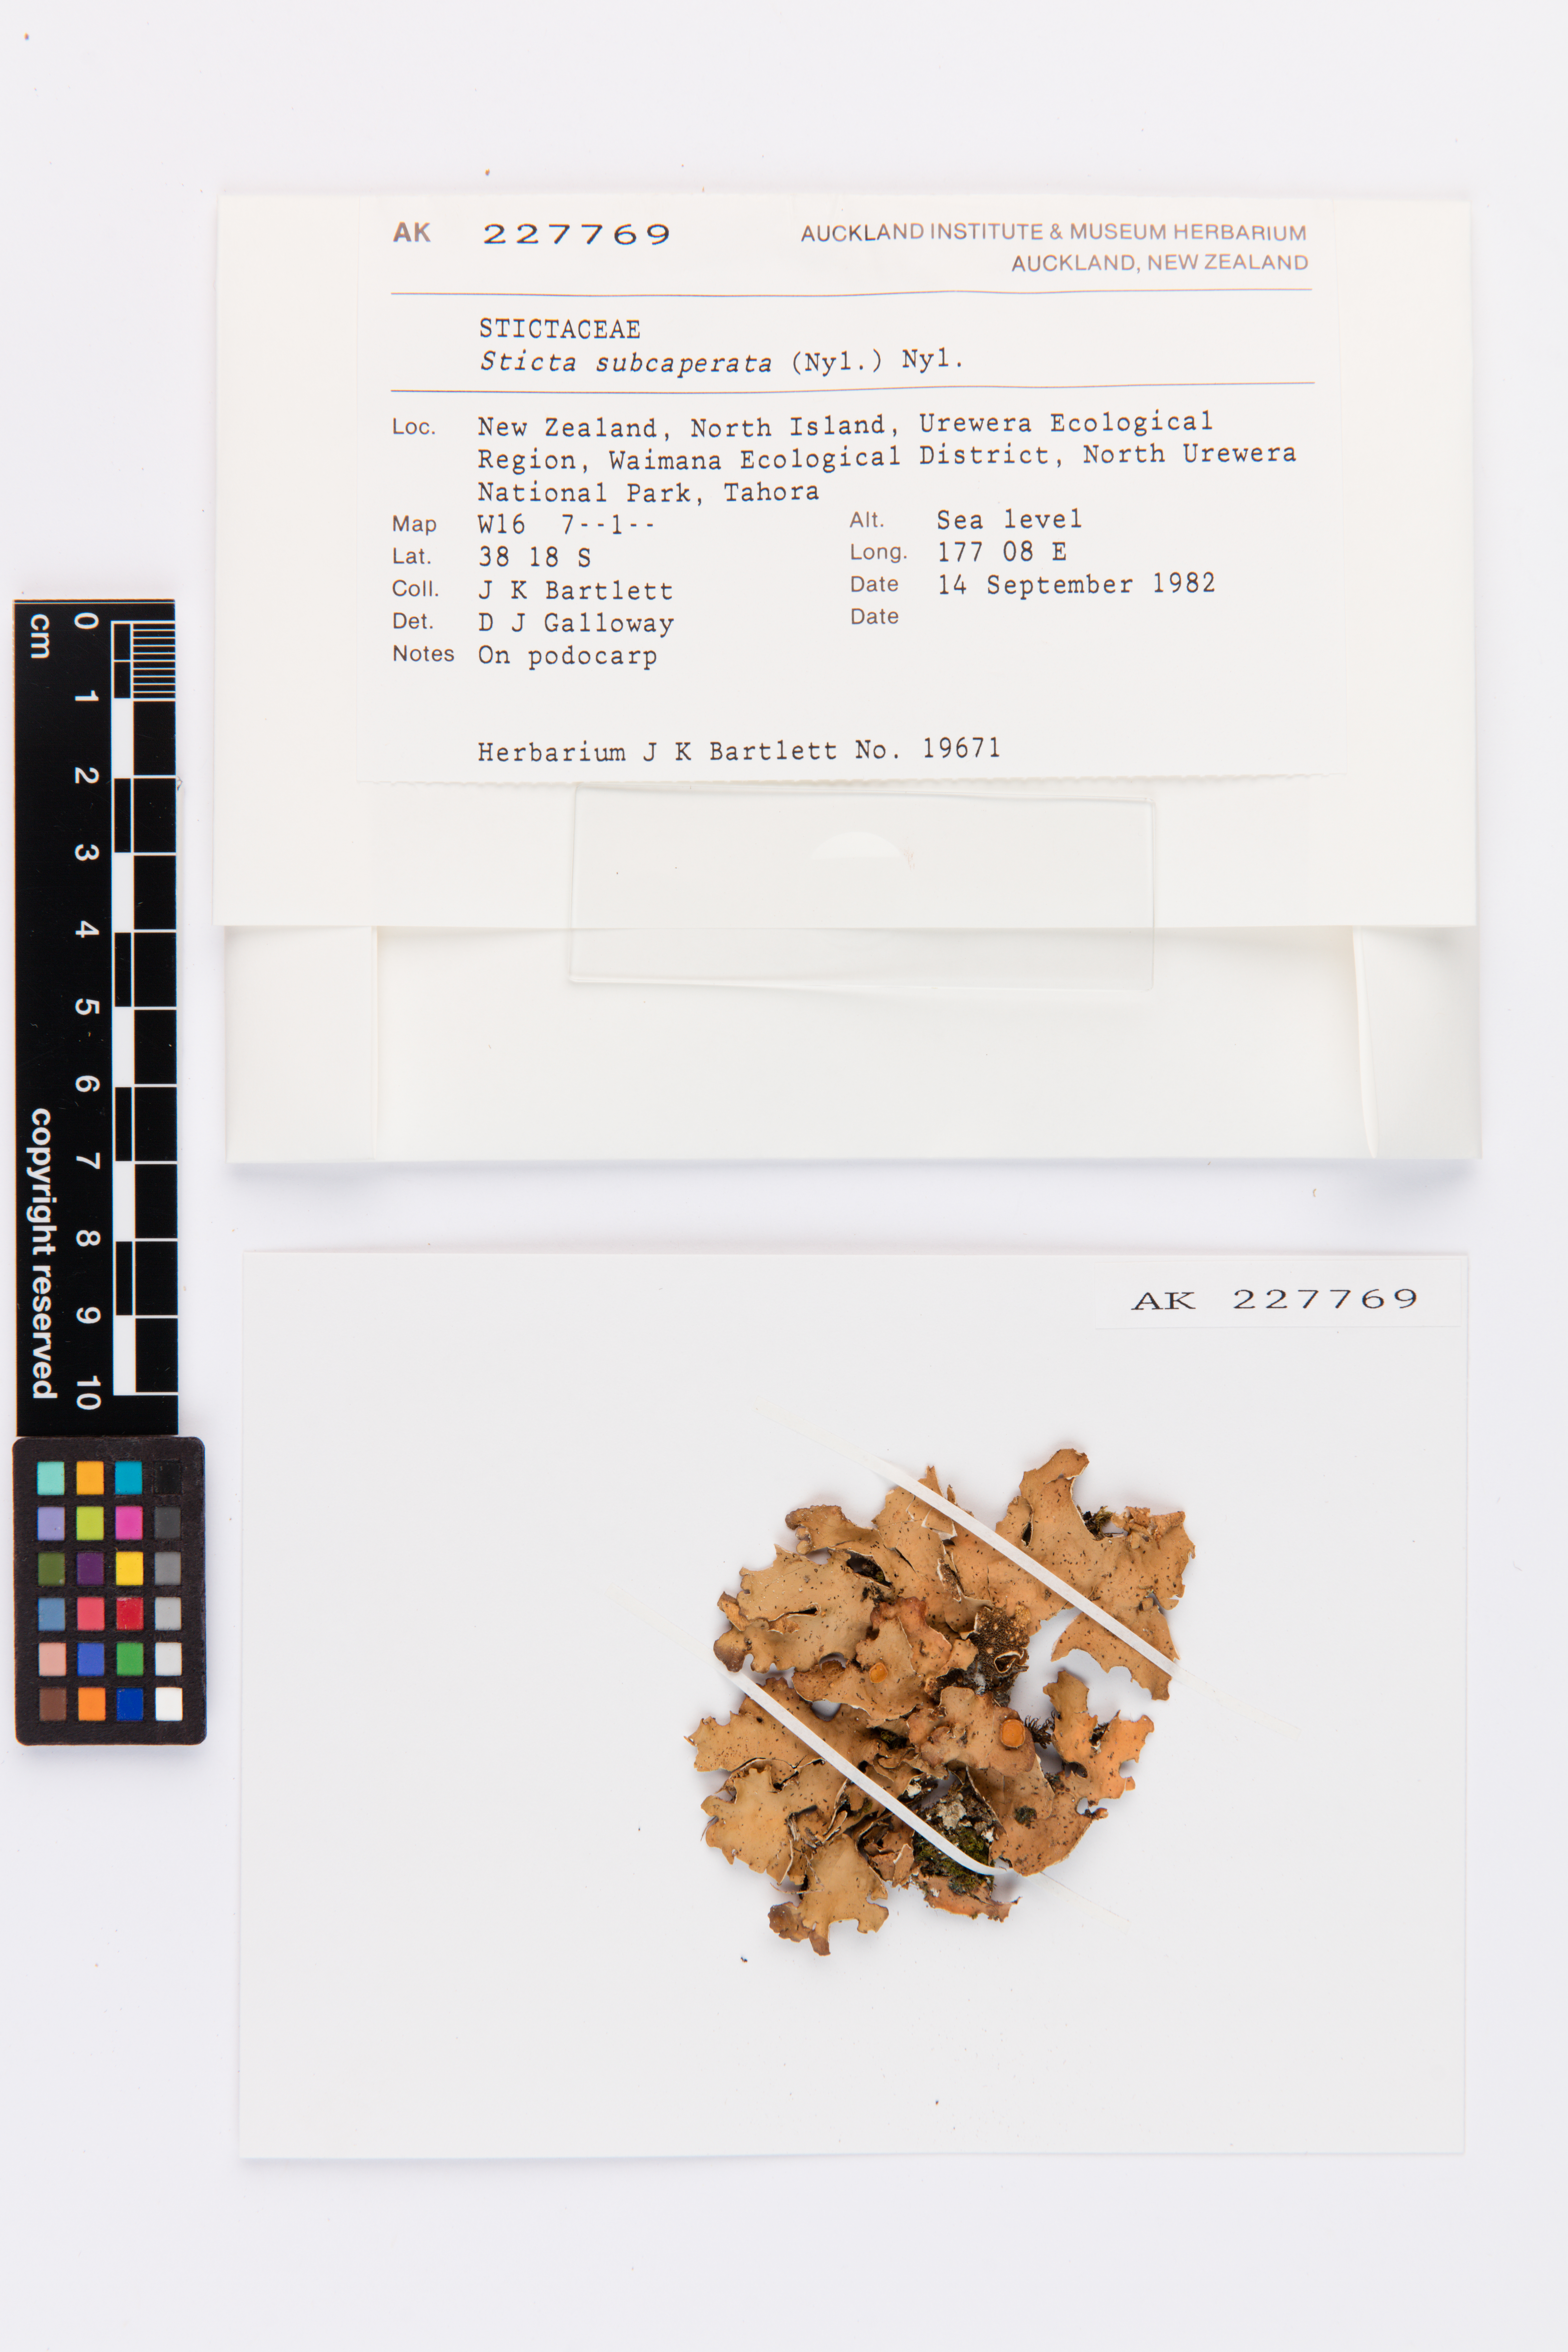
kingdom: Fungi
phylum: Ascomycota
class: Lecanoromycetes
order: Peltigerales
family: Lobariaceae
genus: Sticta
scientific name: Sticta subcaperata
